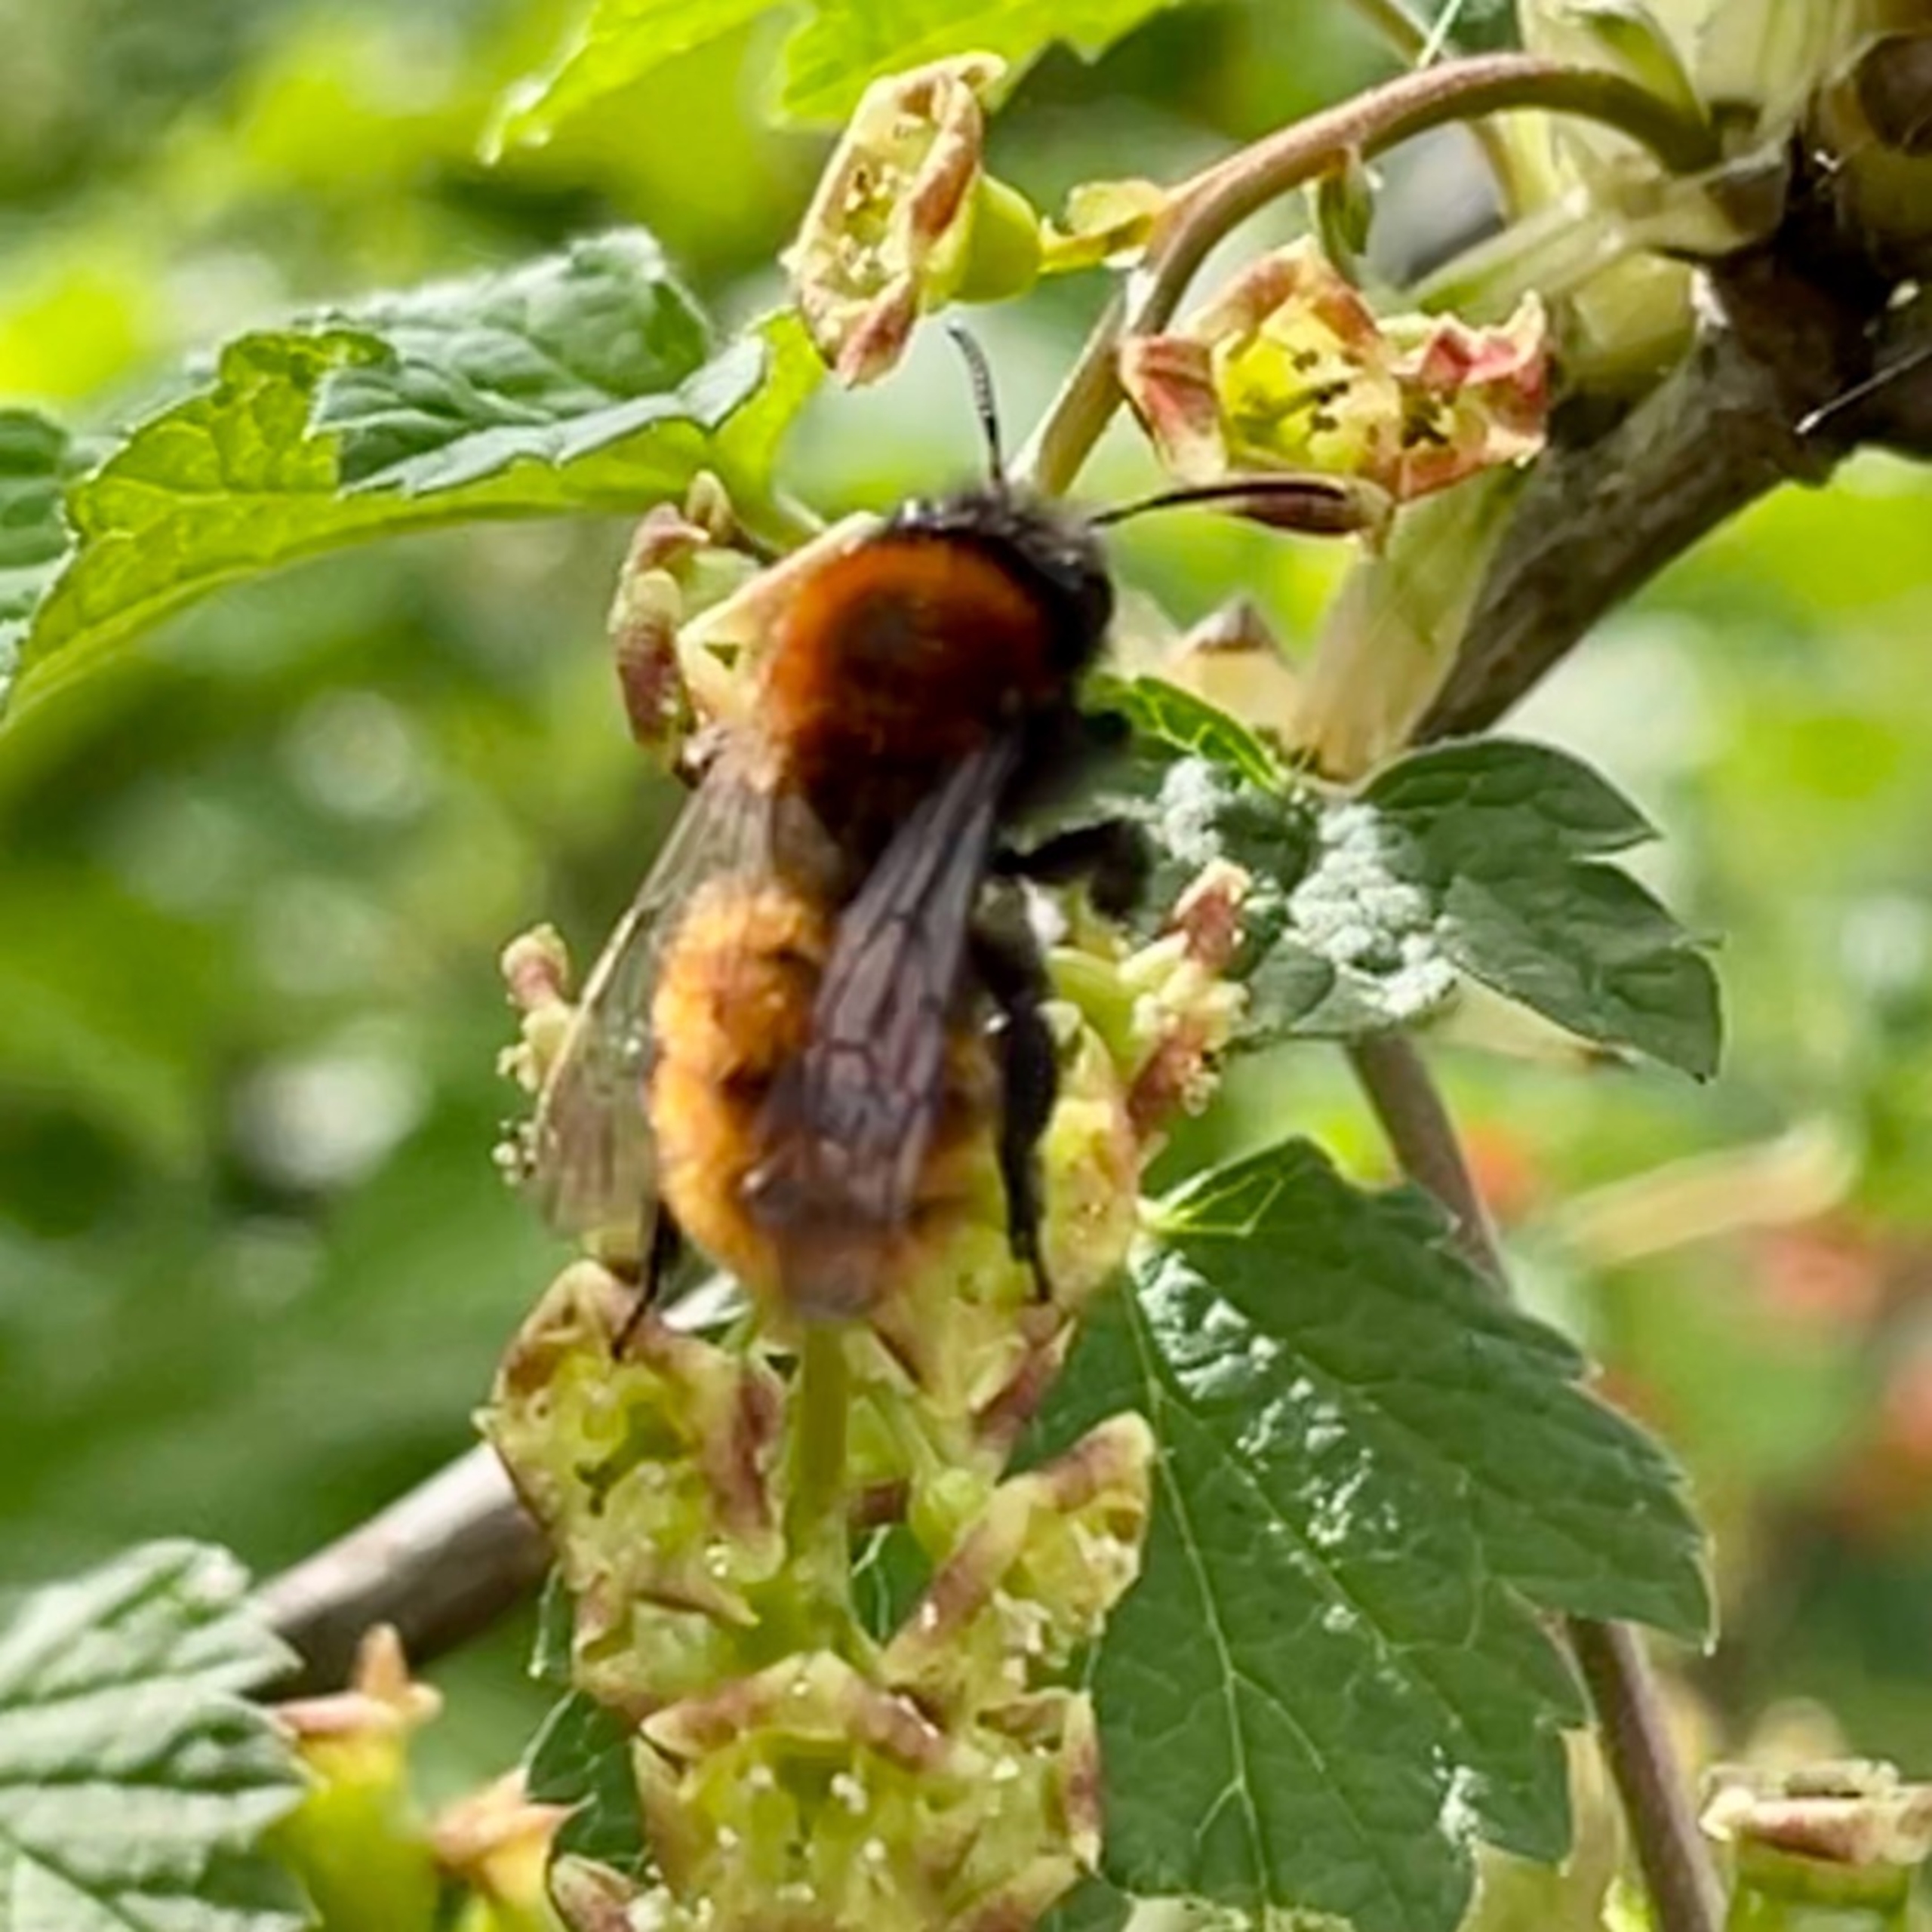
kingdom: Animalia
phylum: Arthropoda
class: Insecta
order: Hymenoptera
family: Andrenidae
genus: Andrena
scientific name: Andrena fulva
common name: Rødpelset jordbi
